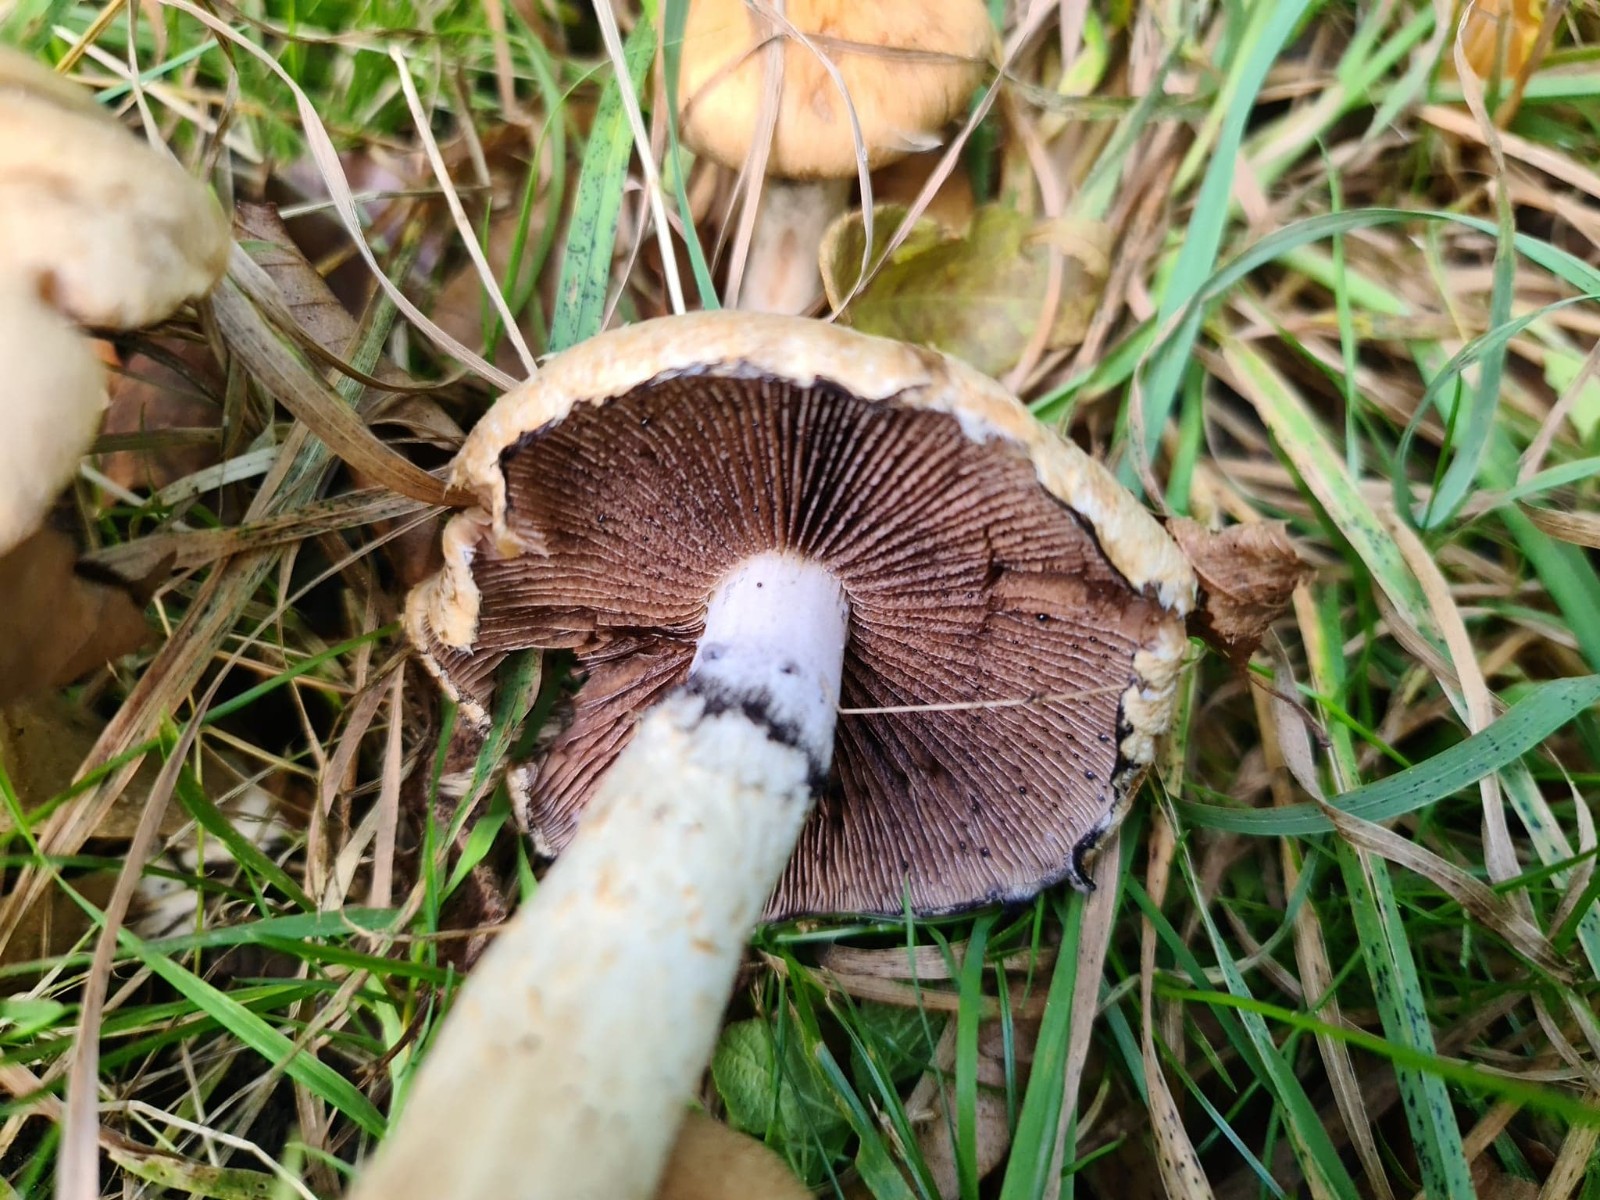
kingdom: Fungi
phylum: Basidiomycota
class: Agaricomycetes
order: Agaricales
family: Psathyrellaceae
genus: Lacrymaria
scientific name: Lacrymaria lacrymabunda
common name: grædende mørkhat
